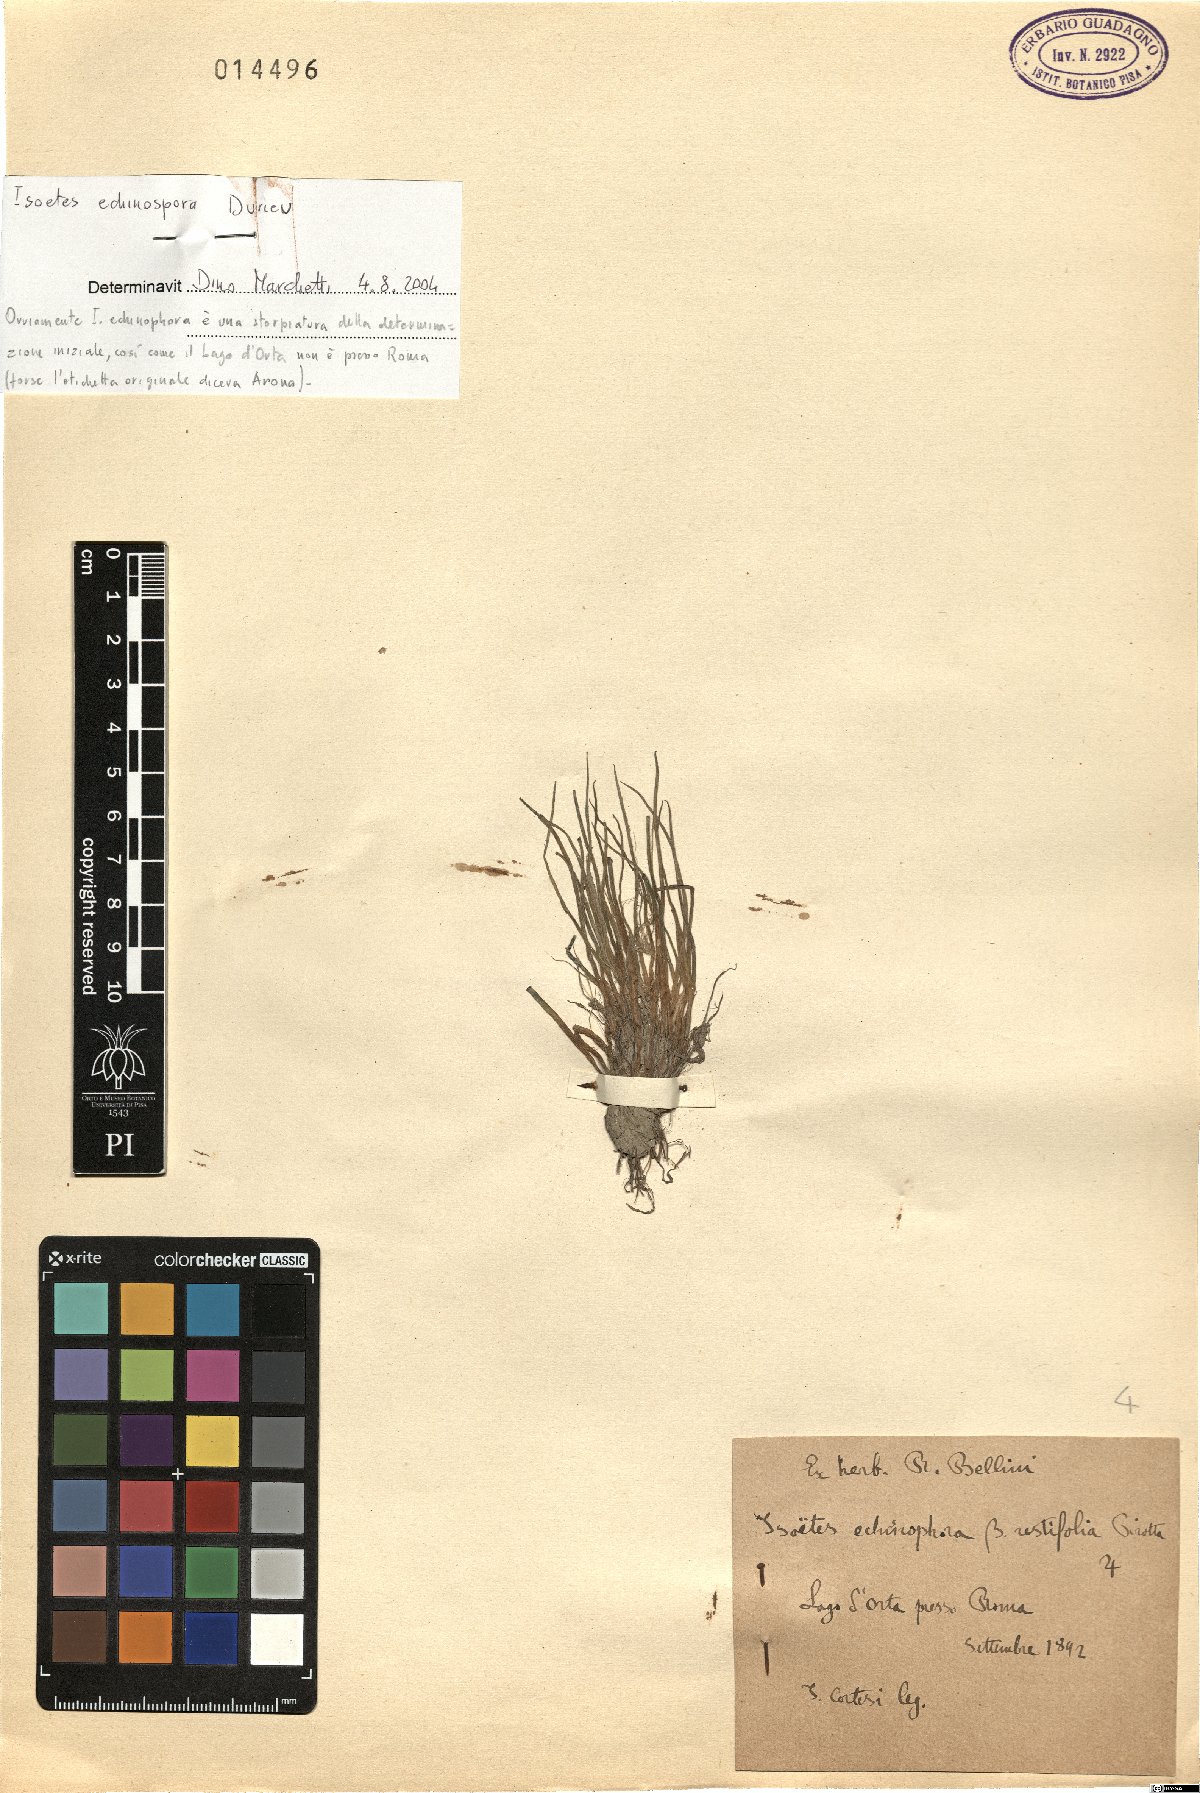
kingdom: Plantae
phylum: Tracheophyta
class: Lycopodiopsida
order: Isoetales
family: Isoetaceae
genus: Isoetes
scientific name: Isoetes echinospora
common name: Spring quillwort
